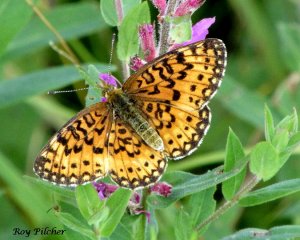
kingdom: Animalia
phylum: Arthropoda
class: Insecta
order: Lepidoptera
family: Nymphalidae
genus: Boloria
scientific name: Boloria selene
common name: Silver-bordered Fritillary
